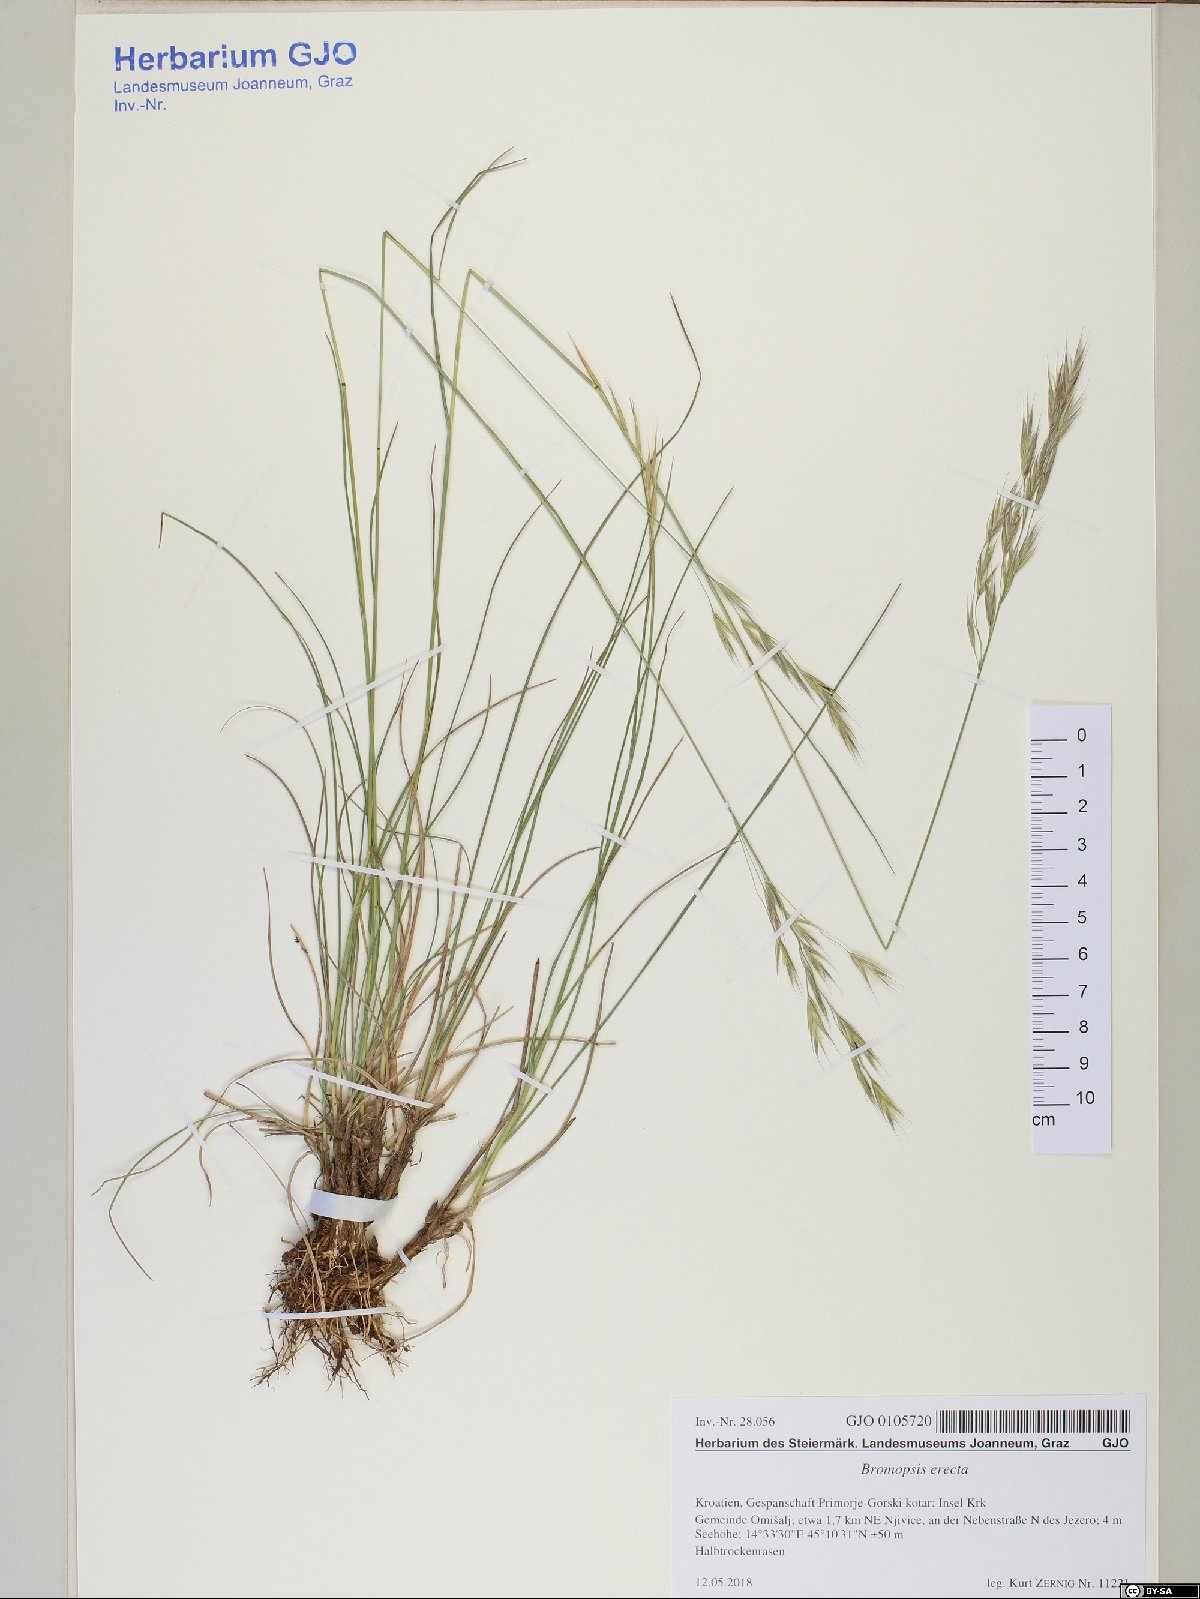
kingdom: Plantae
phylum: Tracheophyta
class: Liliopsida
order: Poales
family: Poaceae
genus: Bromus
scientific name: Bromus erectus
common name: Erect brome
